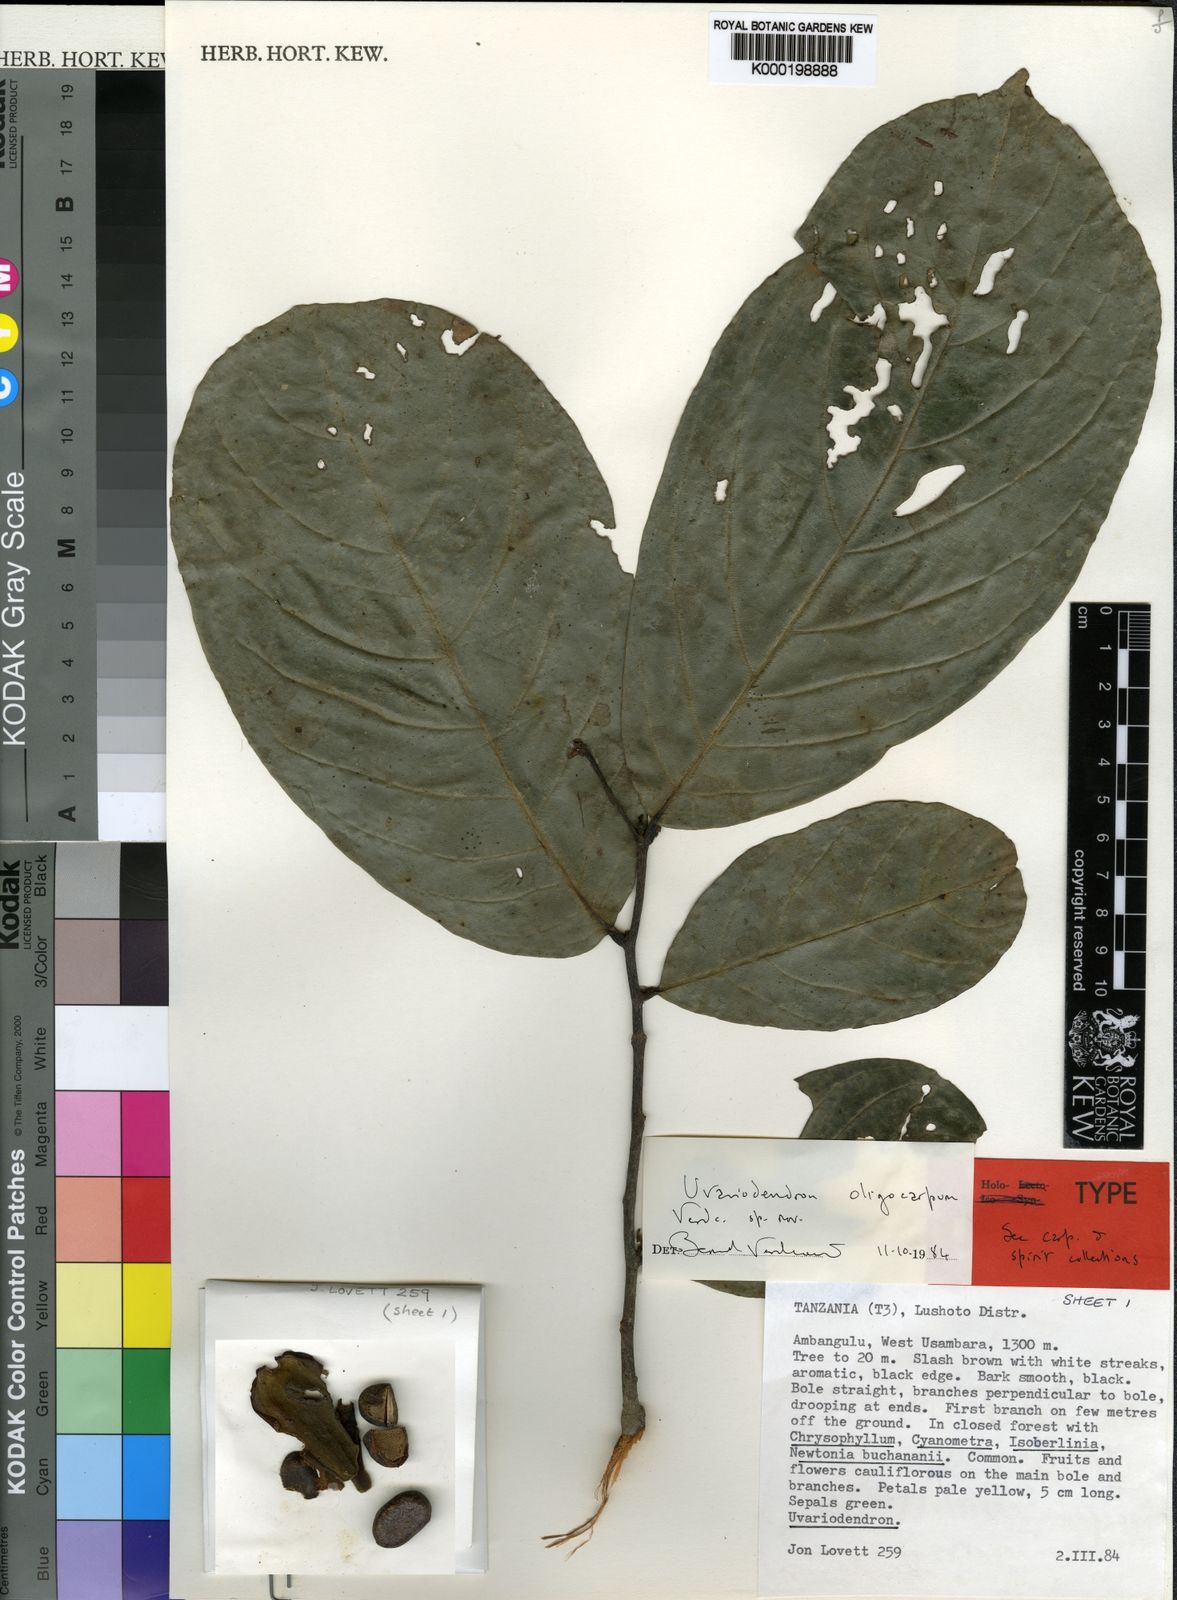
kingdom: Plantae
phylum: Tracheophyta
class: Magnoliopsida
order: Magnoliales
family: Annonaceae
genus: Uvariodendron
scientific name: Uvariodendron oligocarpum
